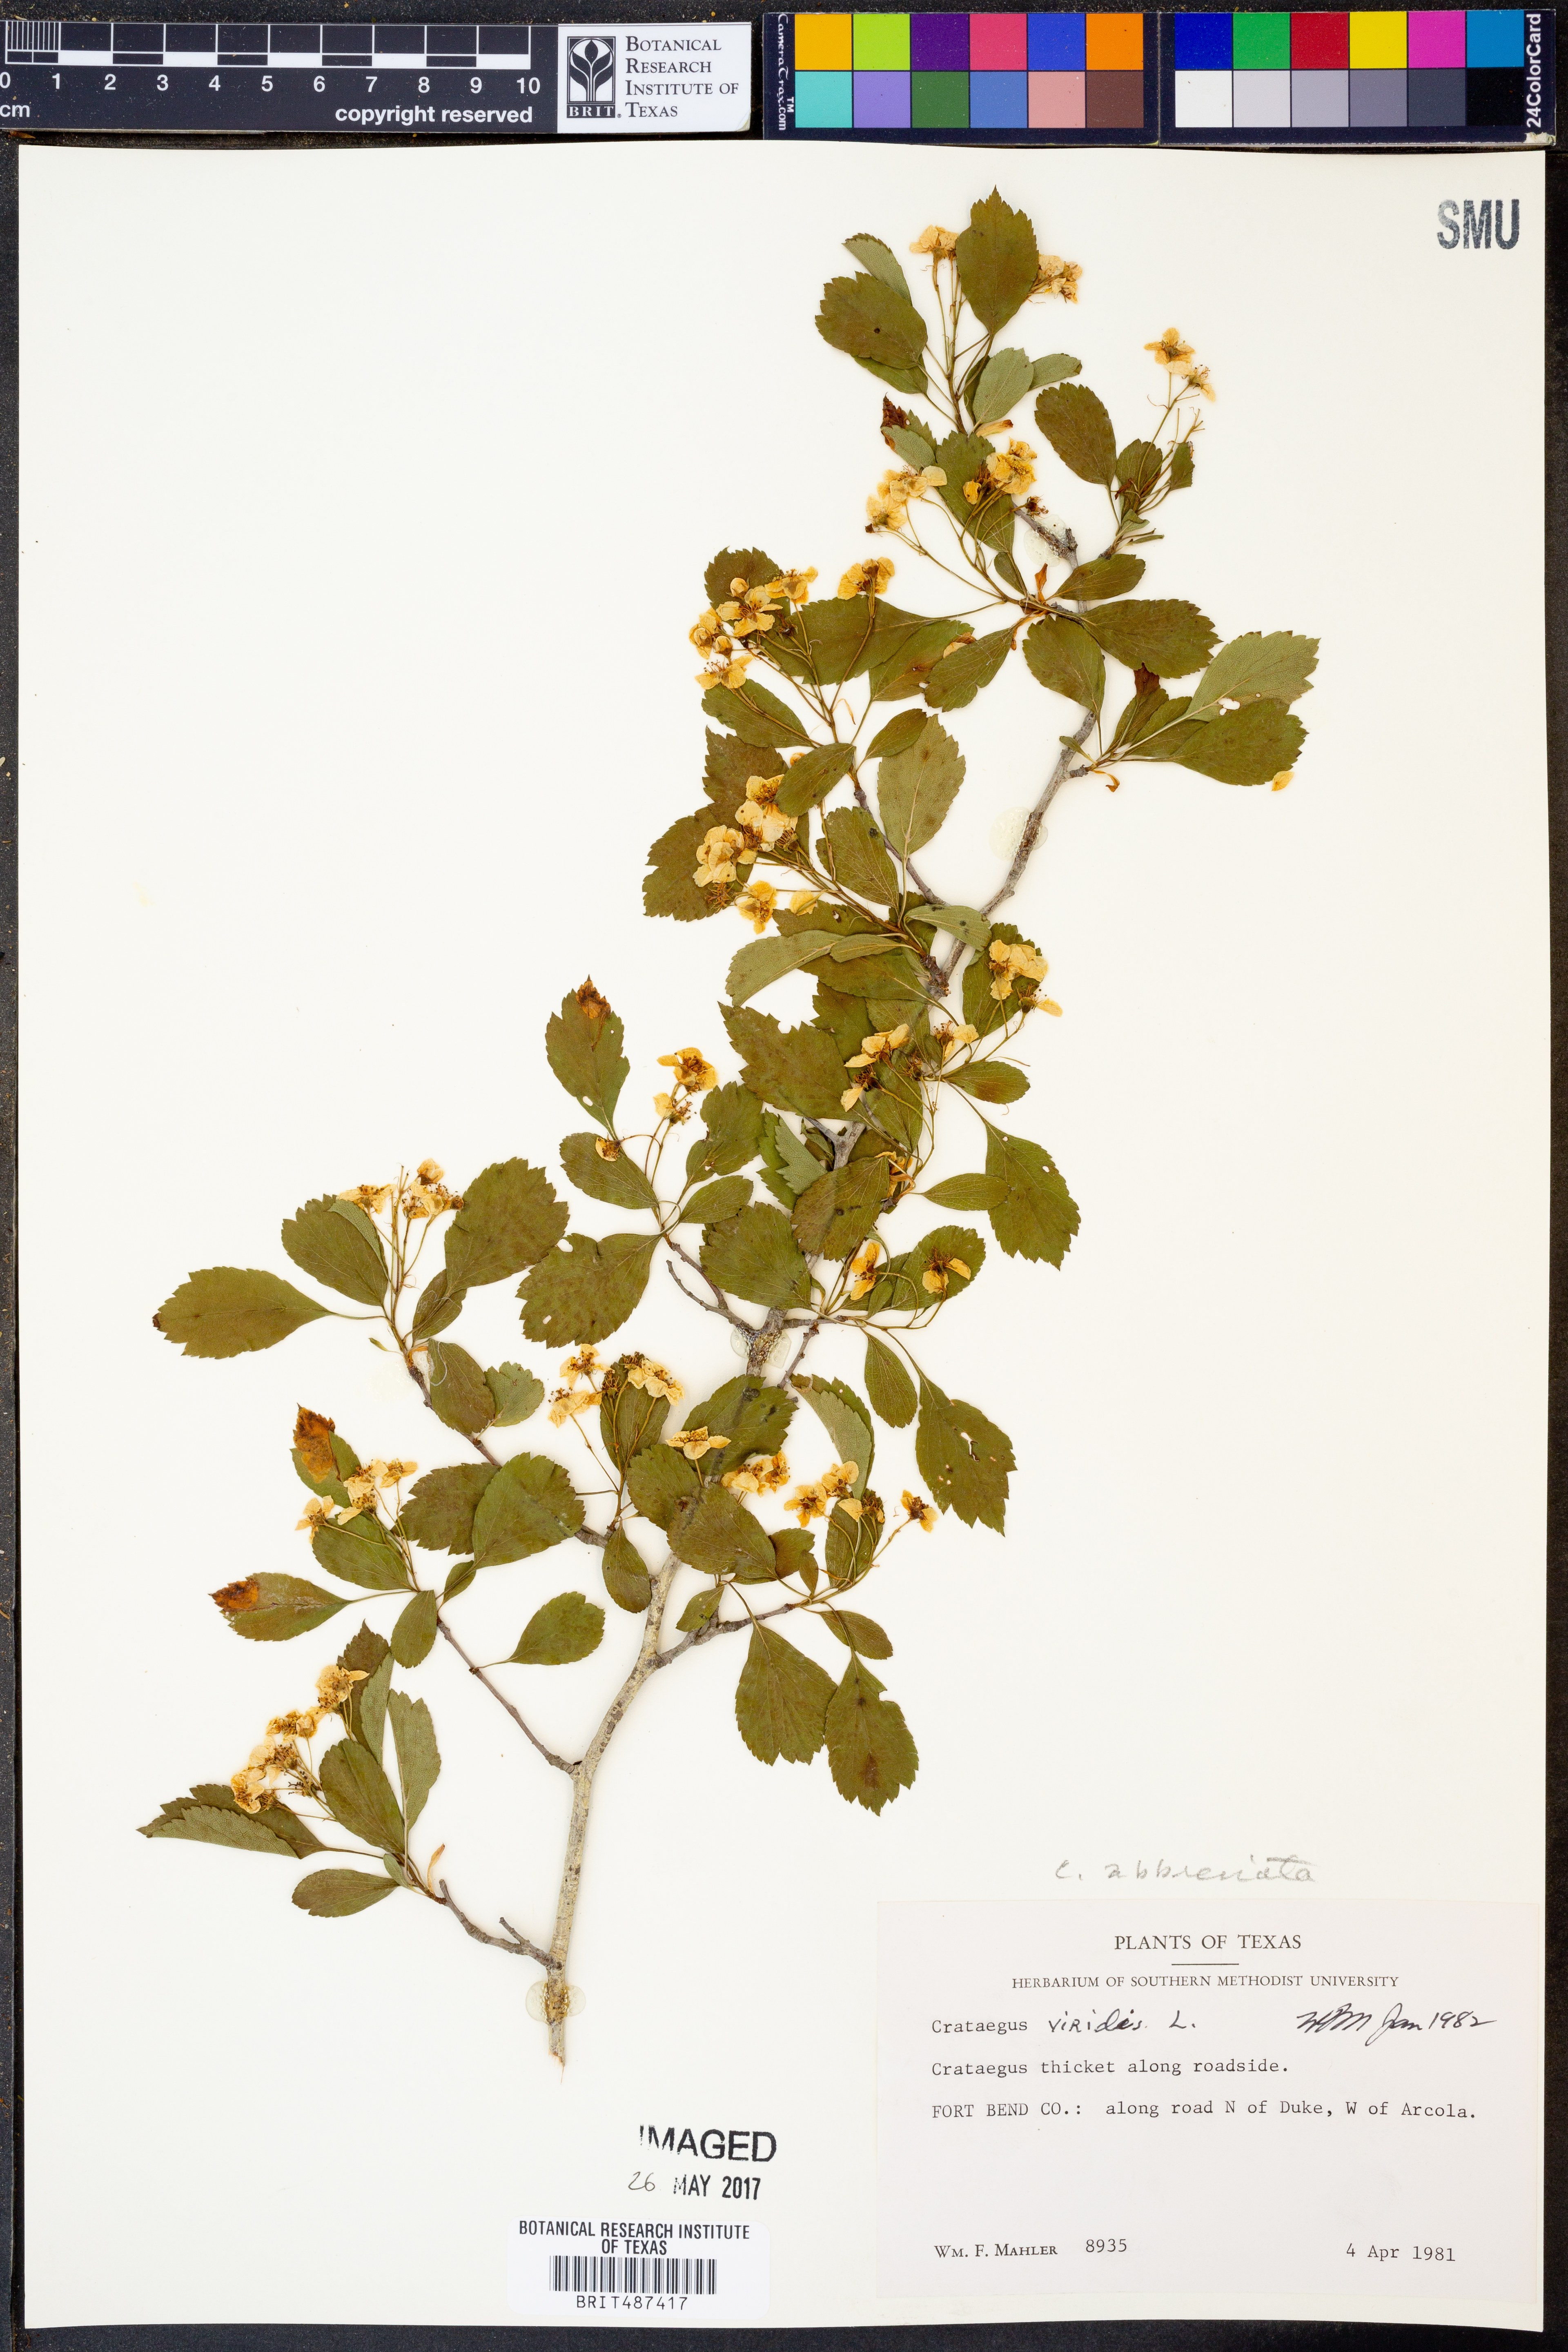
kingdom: Plantae
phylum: Tracheophyta
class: Magnoliopsida
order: Rosales
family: Rosaceae
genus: Crataegus
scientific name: Crataegus viridis
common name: Southernthorn
